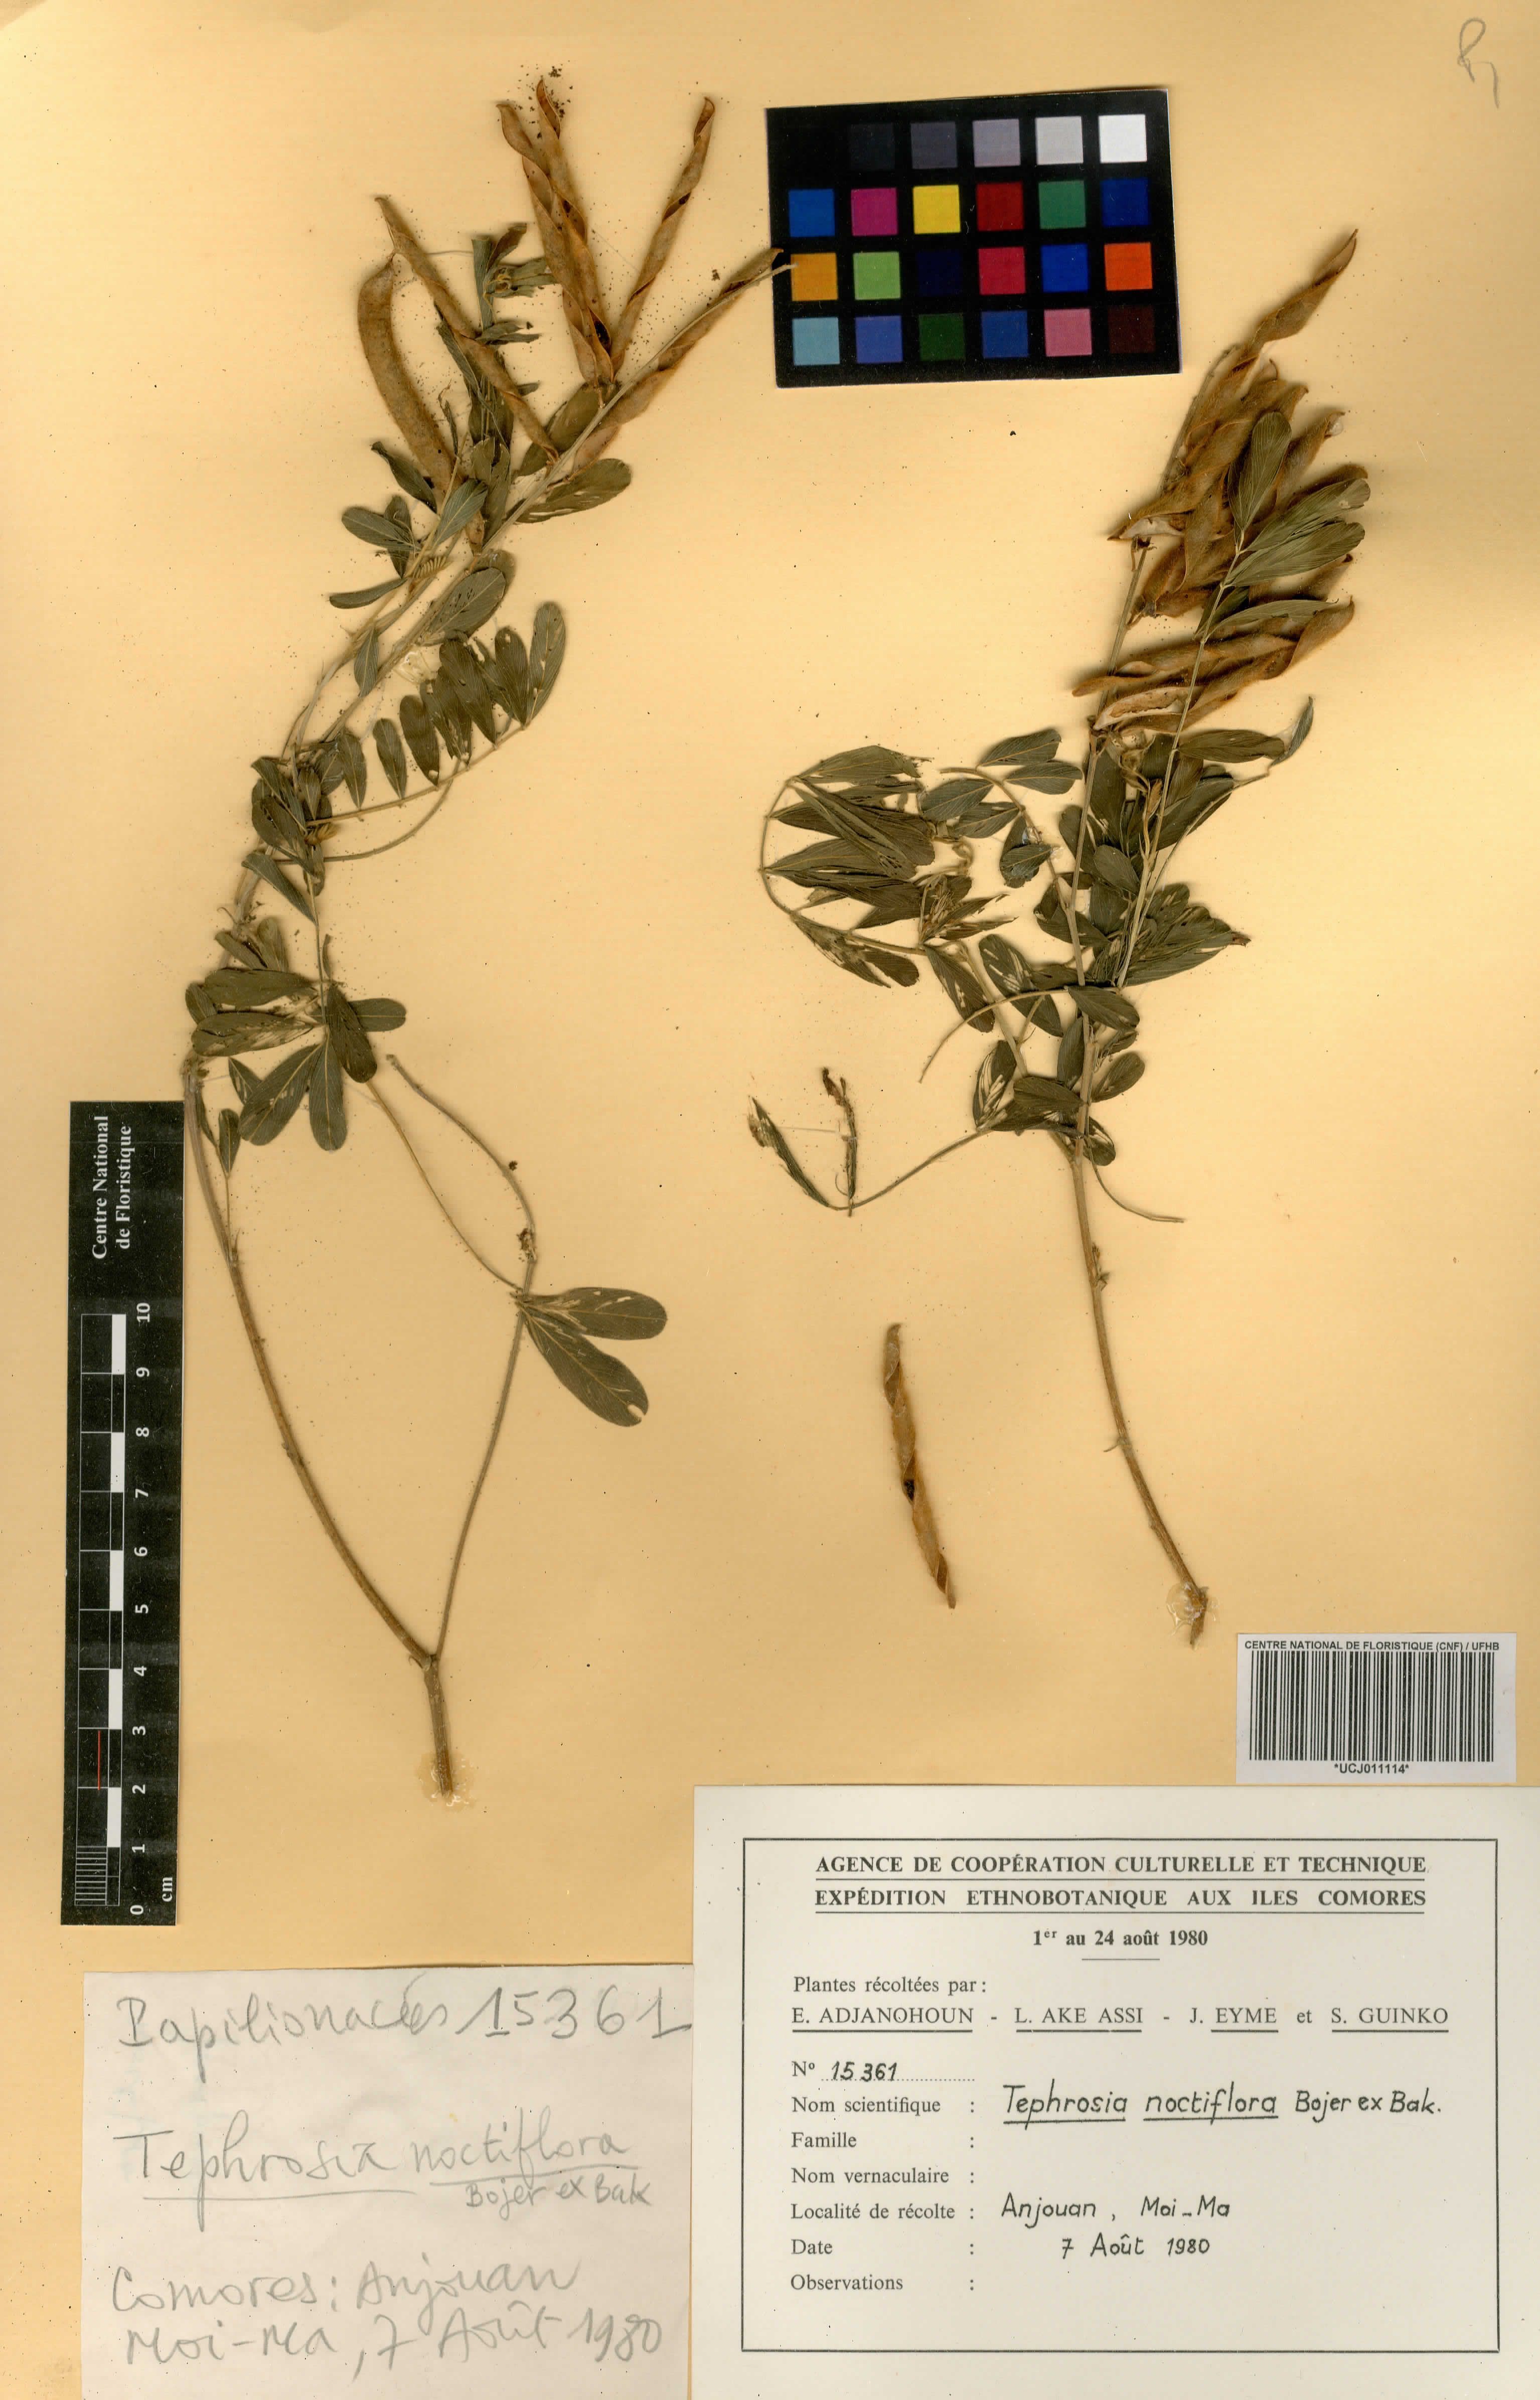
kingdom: Plantae
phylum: Tracheophyta
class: Magnoliopsida
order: Fabales
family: Fabaceae
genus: Tephrosia
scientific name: Tephrosia noctiflora
